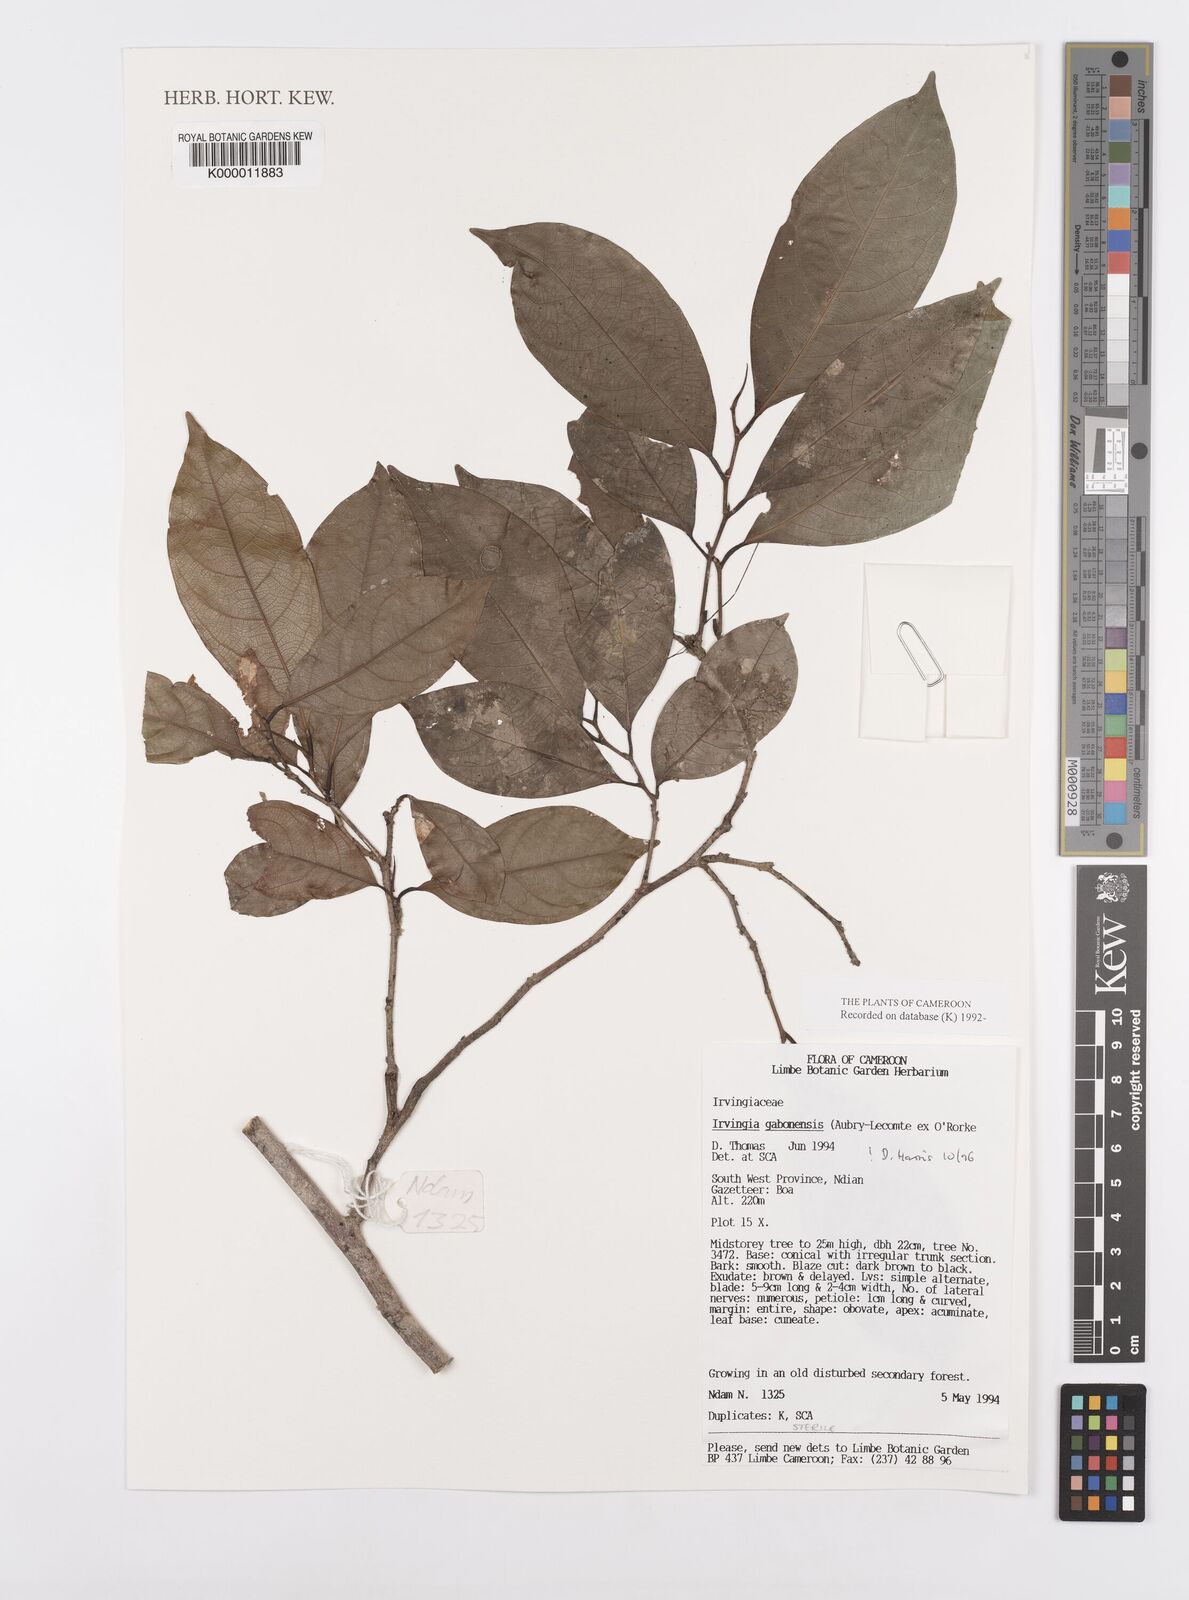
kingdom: Plantae
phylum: Tracheophyta
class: Magnoliopsida
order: Malpighiales
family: Irvingiaceae
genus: Irvingia
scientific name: Irvingia gabonensis
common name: Rainy season bush-mango
